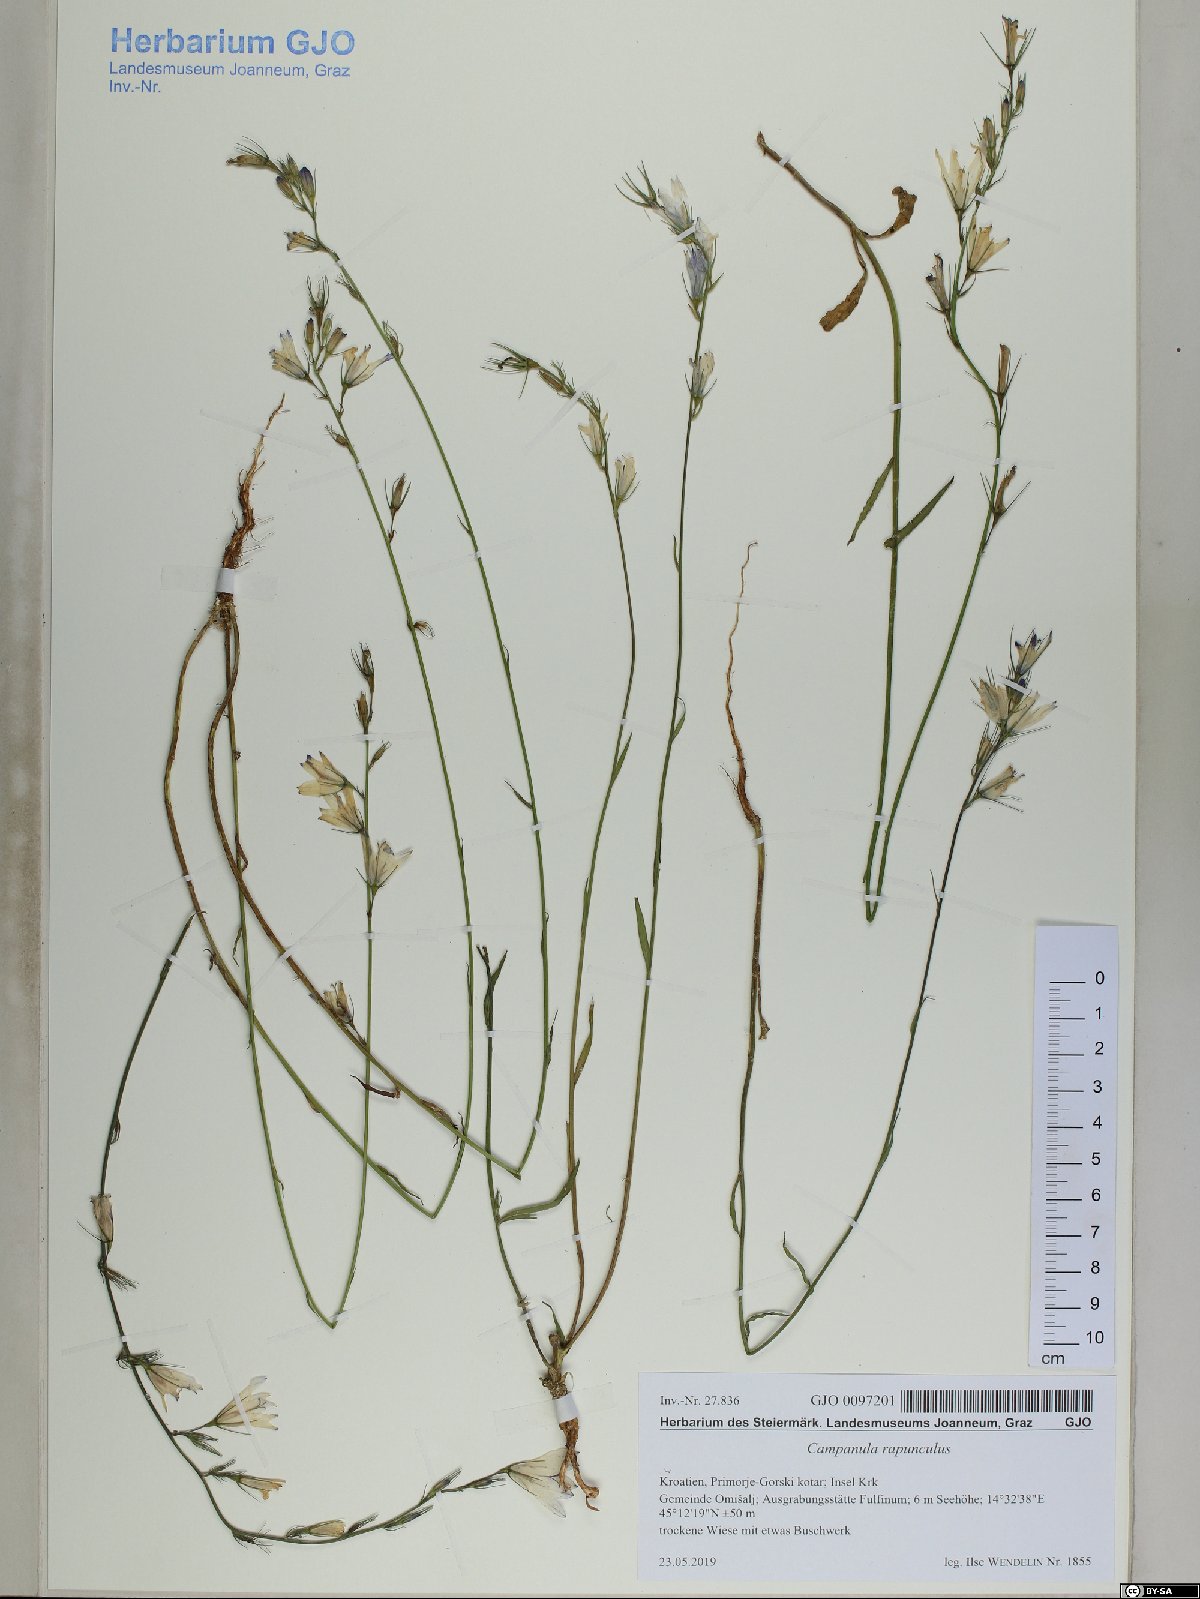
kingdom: Plantae
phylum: Tracheophyta
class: Magnoliopsida
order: Asterales
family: Campanulaceae
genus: Campanula
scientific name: Campanula rapunculus
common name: Rampion bellflower
